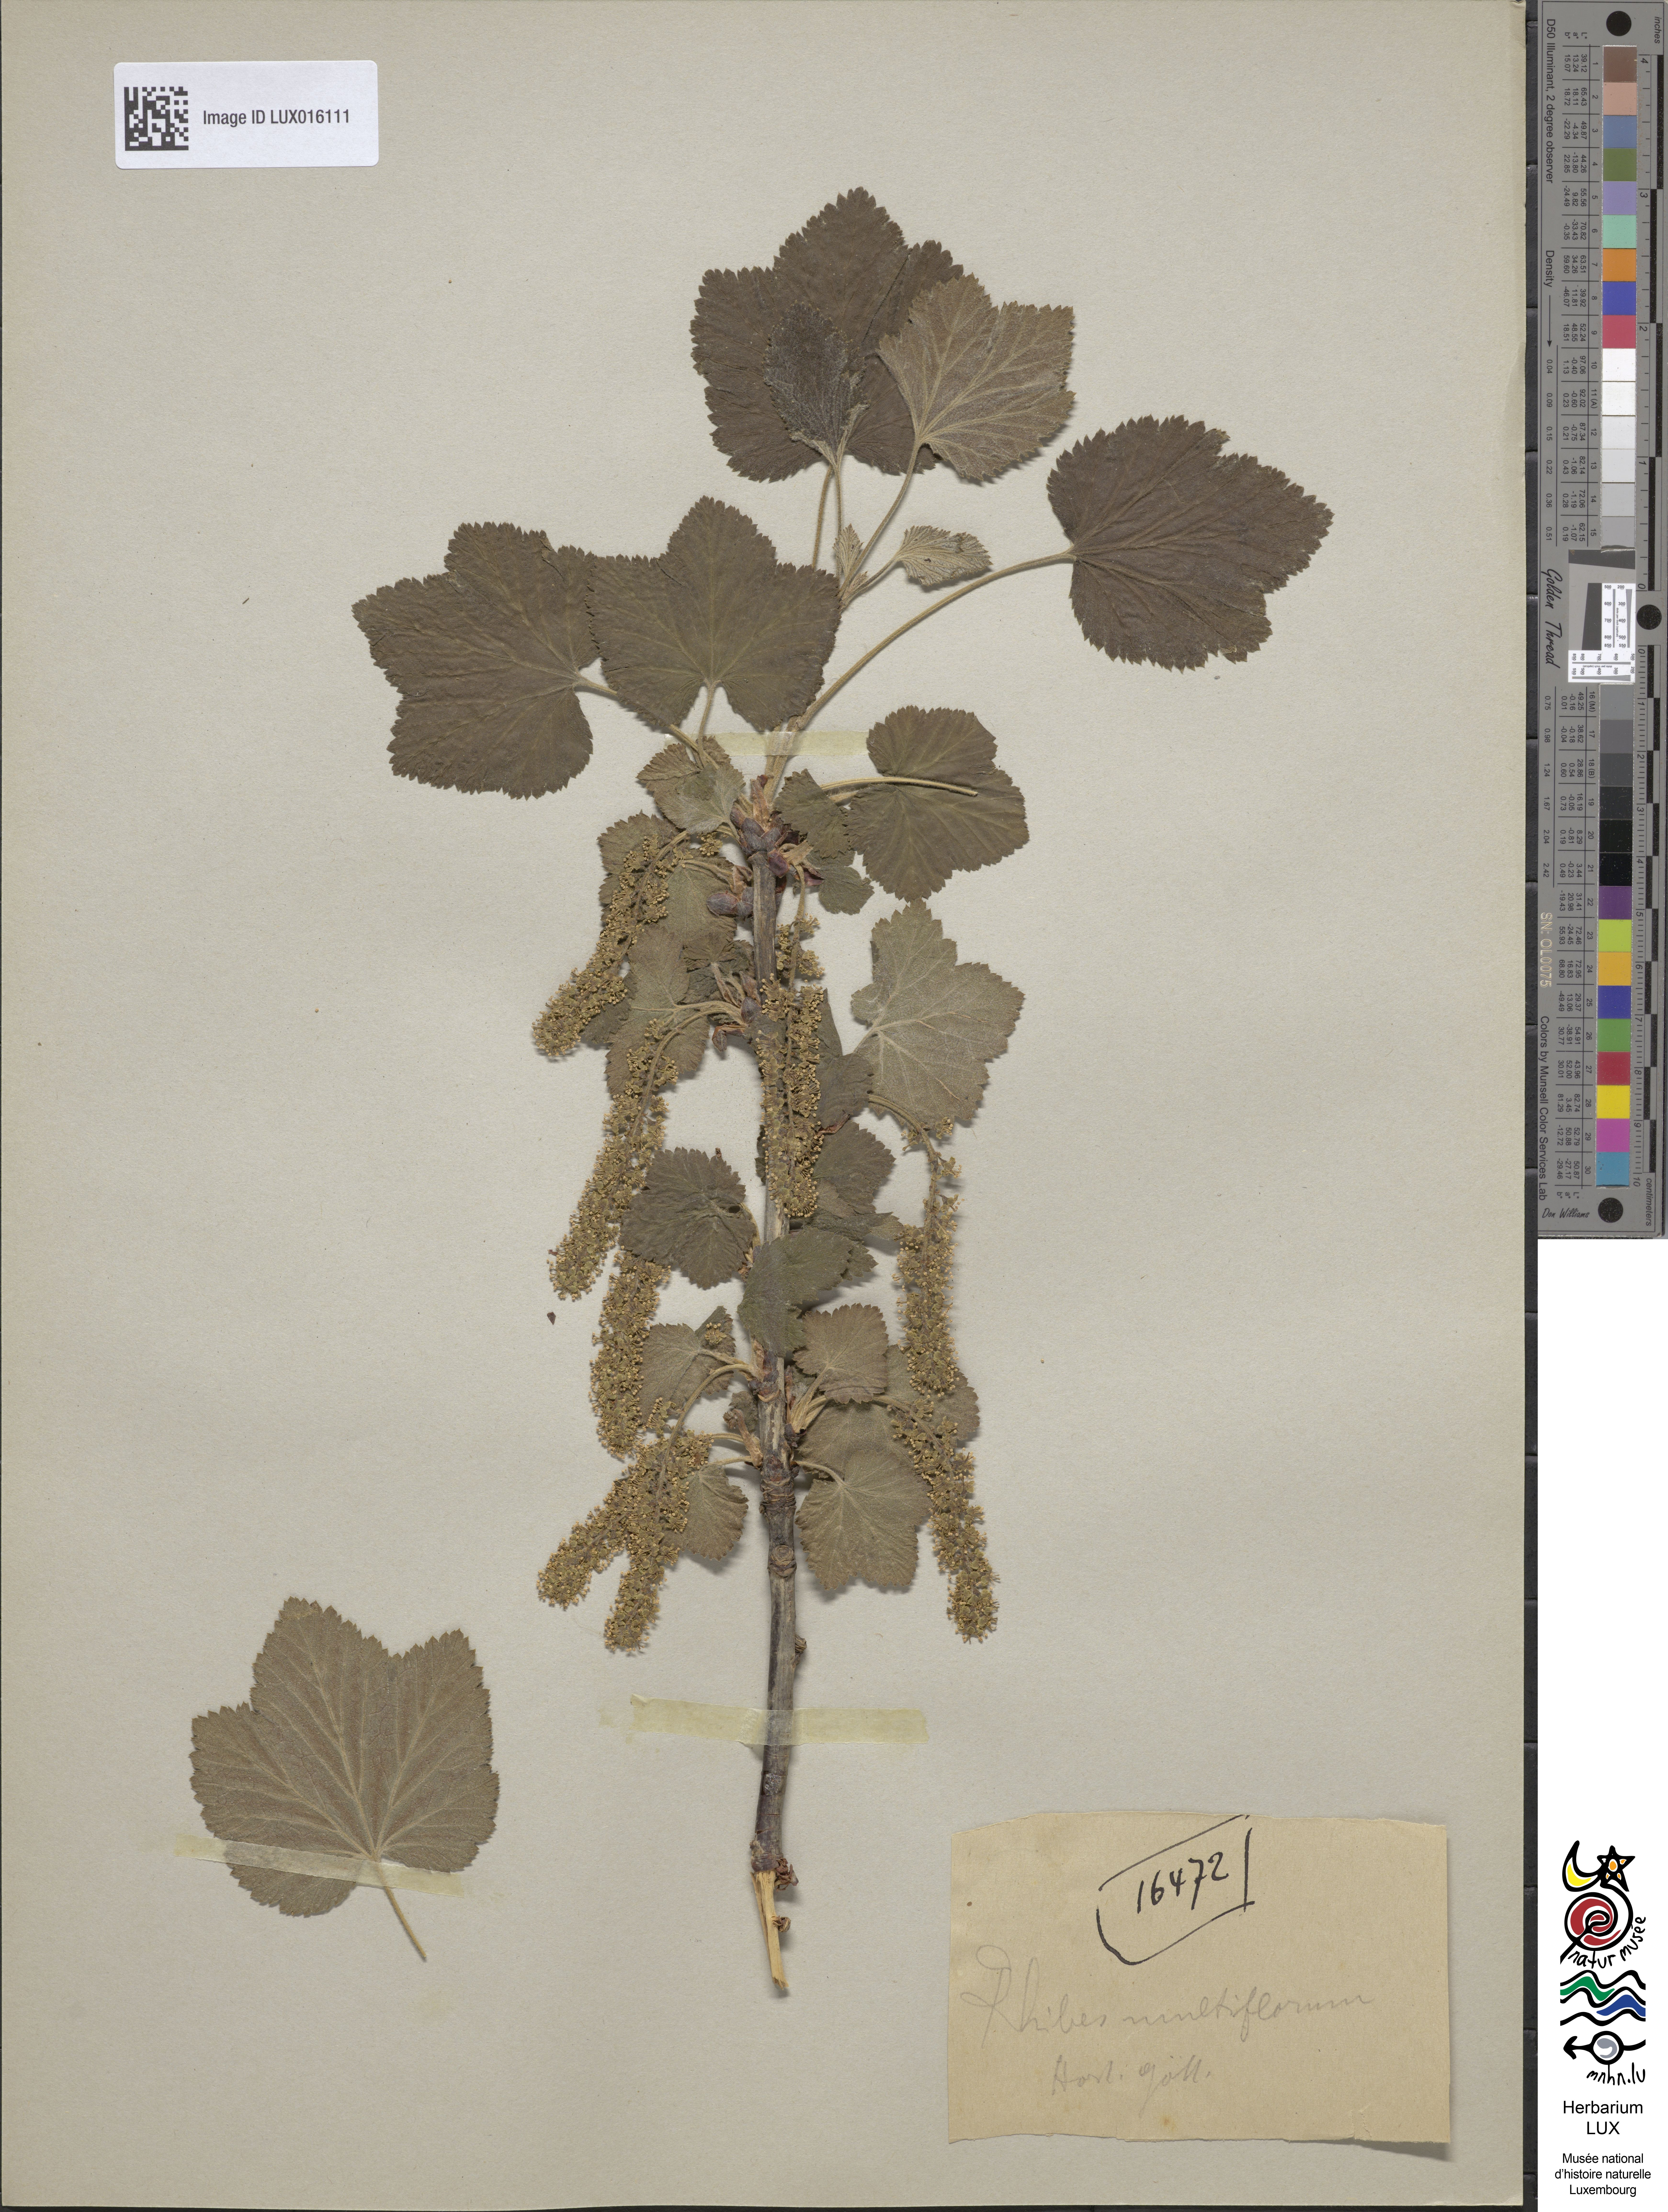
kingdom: Plantae
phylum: Tracheophyta
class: Magnoliopsida
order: Saxifragales
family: Grossulariaceae
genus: Ribes
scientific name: Ribes multiflorum
